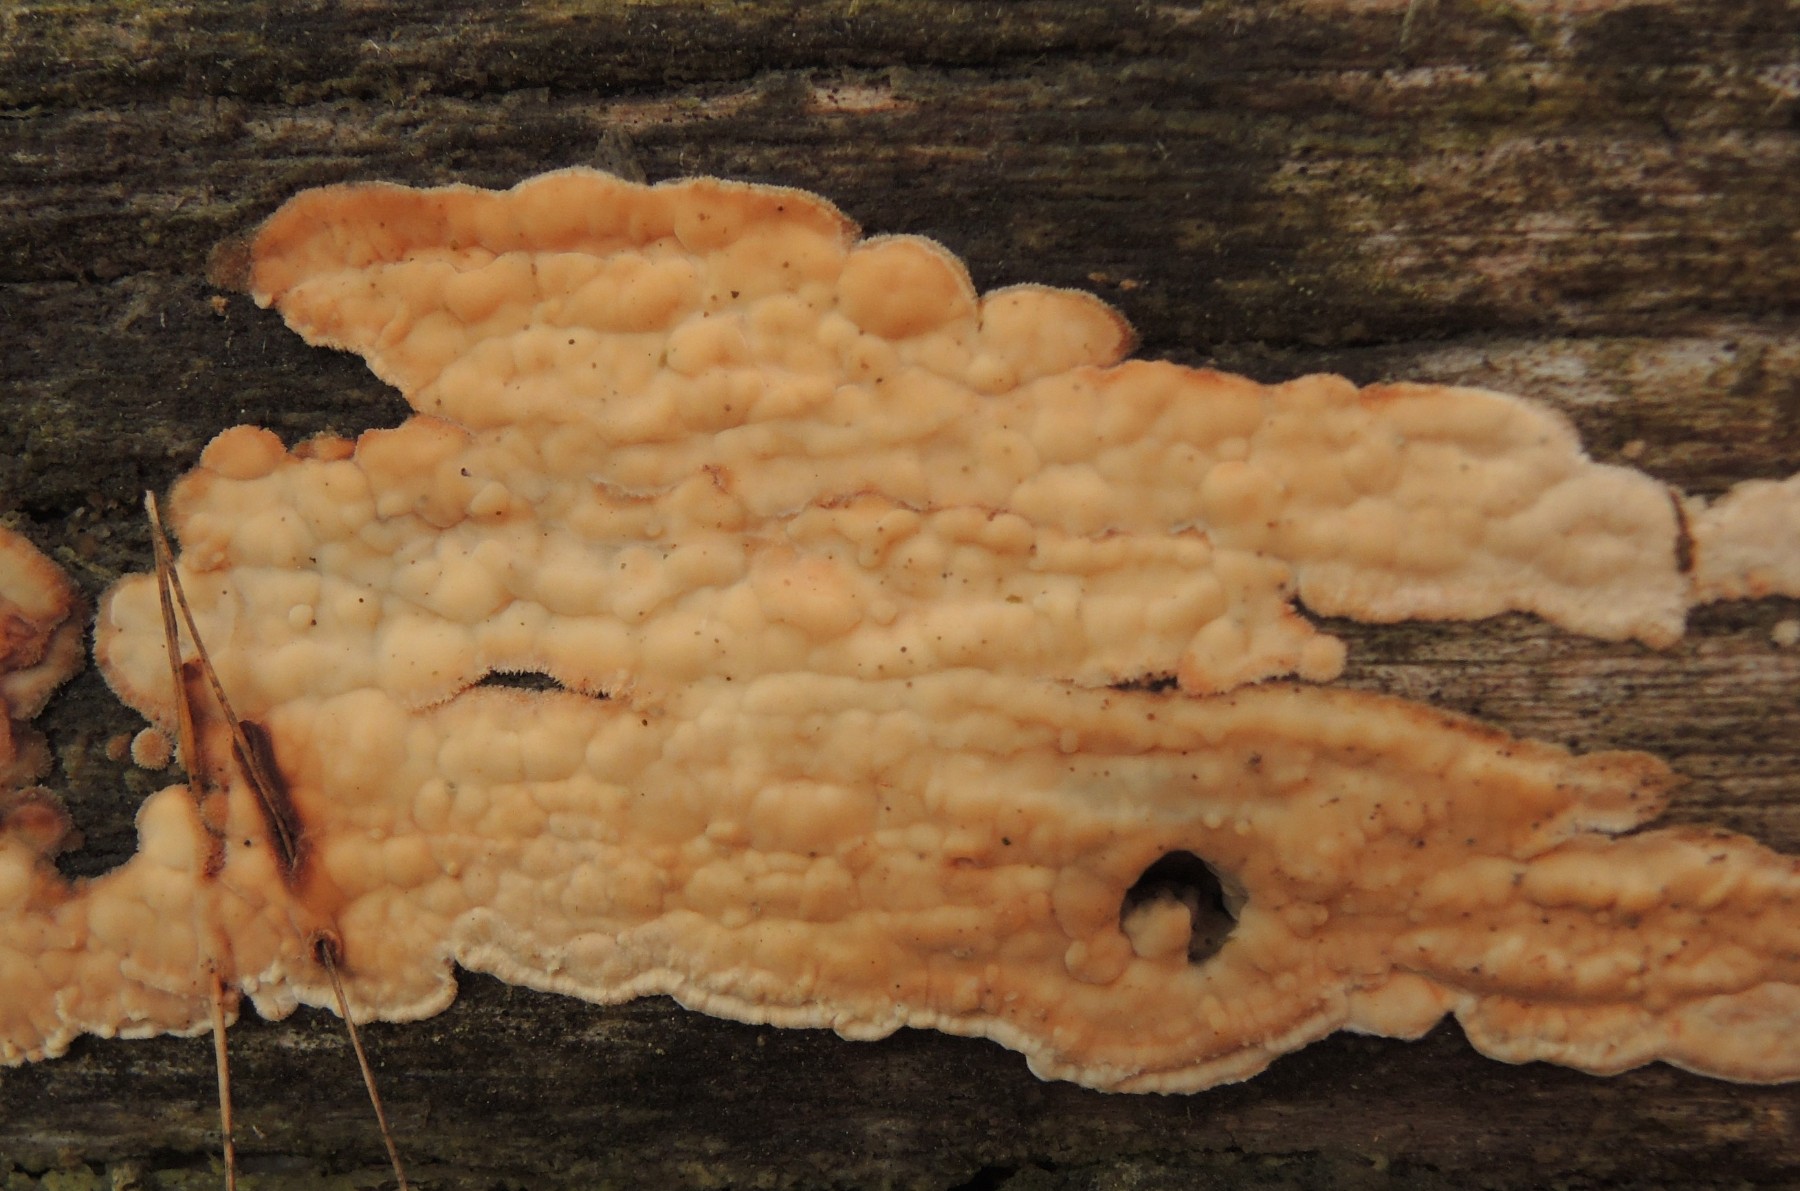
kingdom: Fungi
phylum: Basidiomycota
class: Agaricomycetes
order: Polyporales
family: Dacryobolaceae
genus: Dacryobolus
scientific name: Dacryobolus karstenii
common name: glat vulkanskorpe
